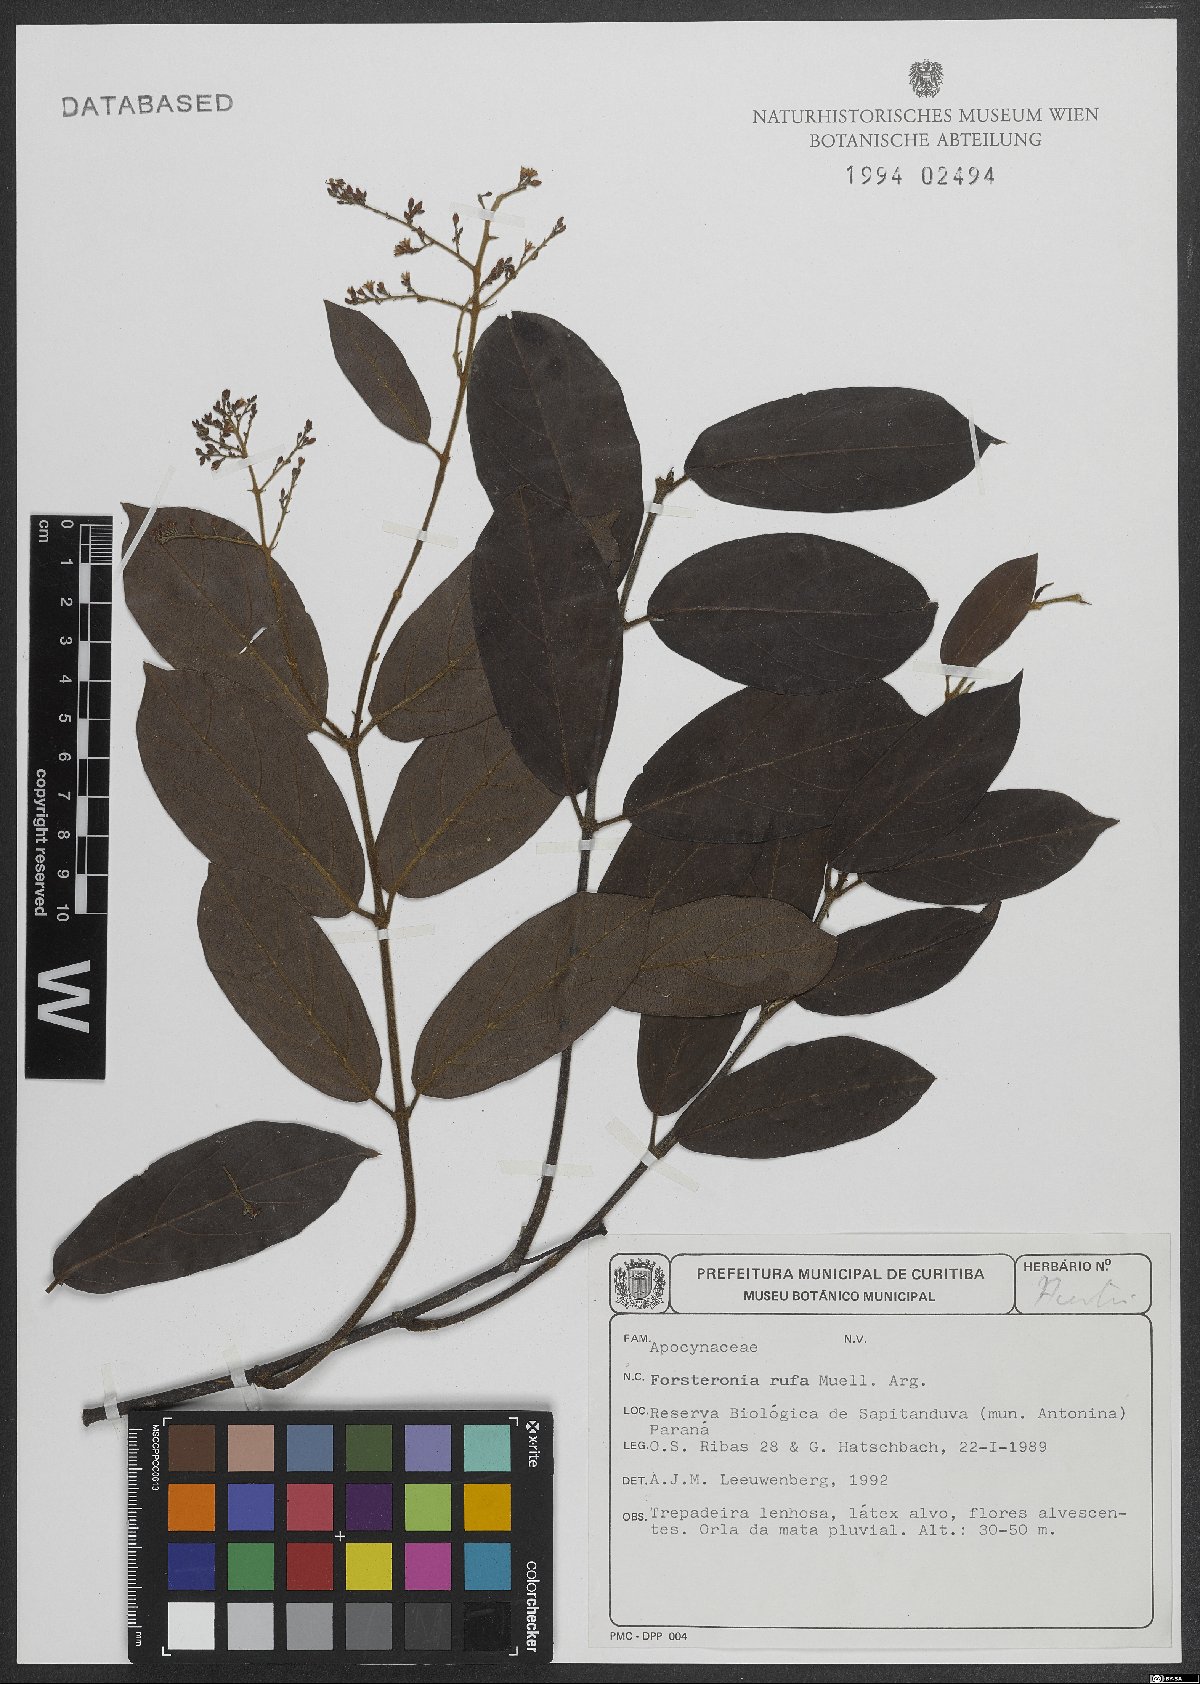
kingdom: Plantae
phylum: Tracheophyta
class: Magnoliopsida
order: Gentianales
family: Apocynaceae
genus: Forsteronia
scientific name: Forsteronia rufa
